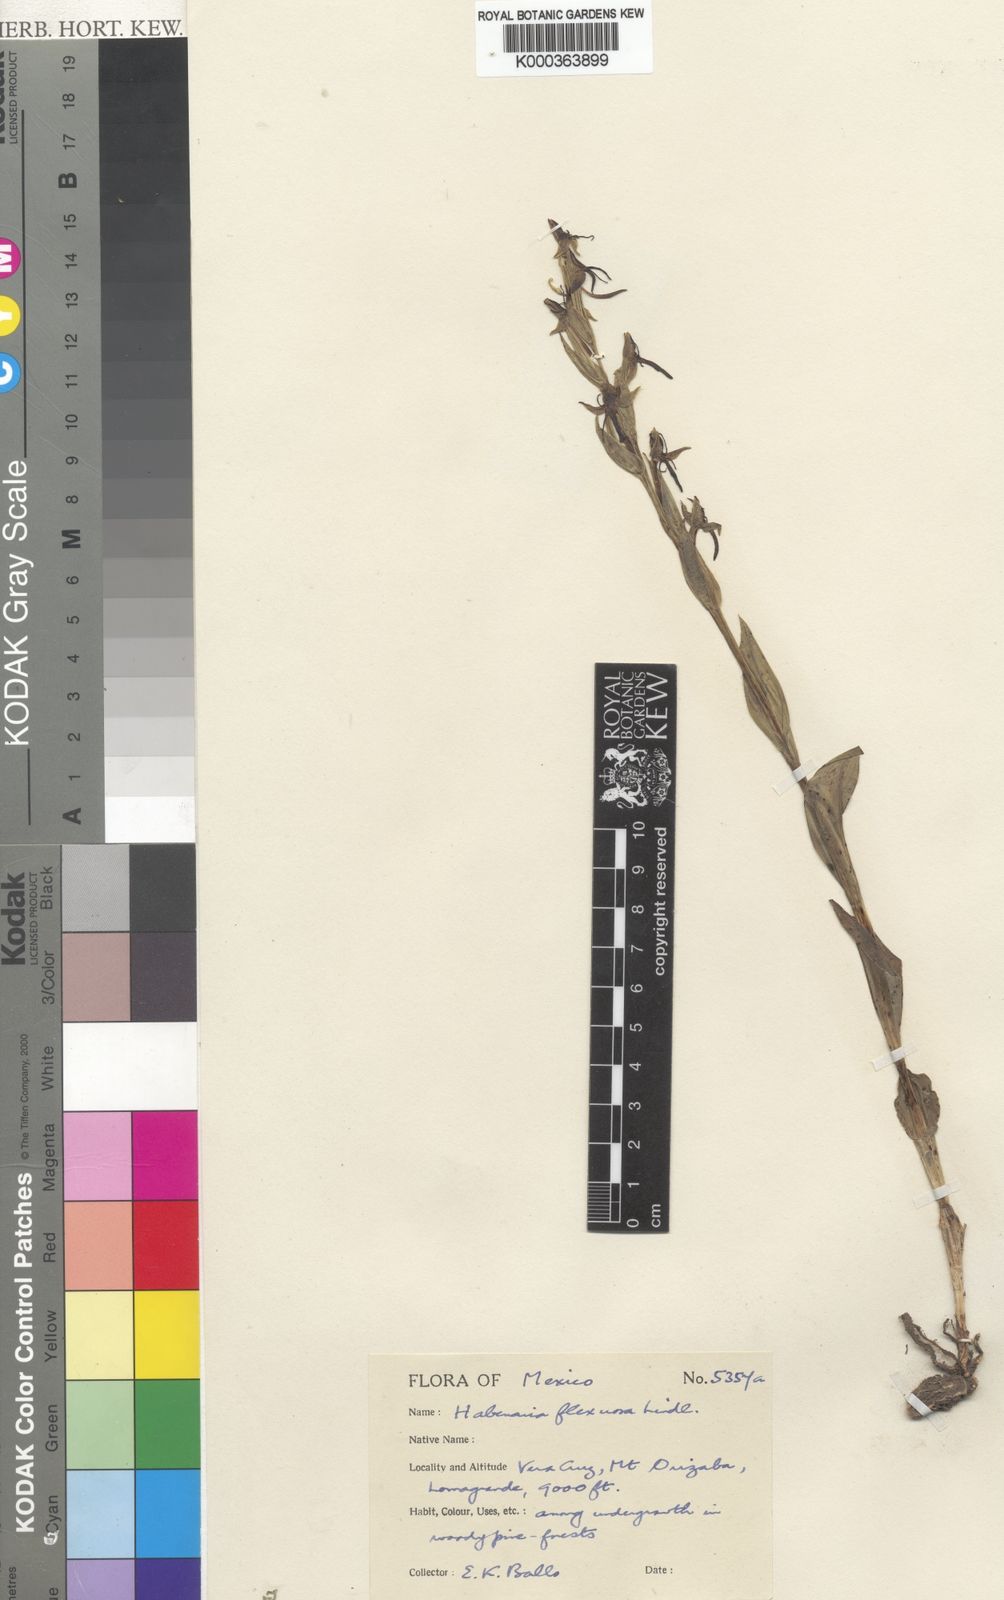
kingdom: Plantae
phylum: Tracheophyta
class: Liliopsida
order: Asparagales
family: Orchidaceae
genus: Habenaria
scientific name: Habenaria flexuosa
